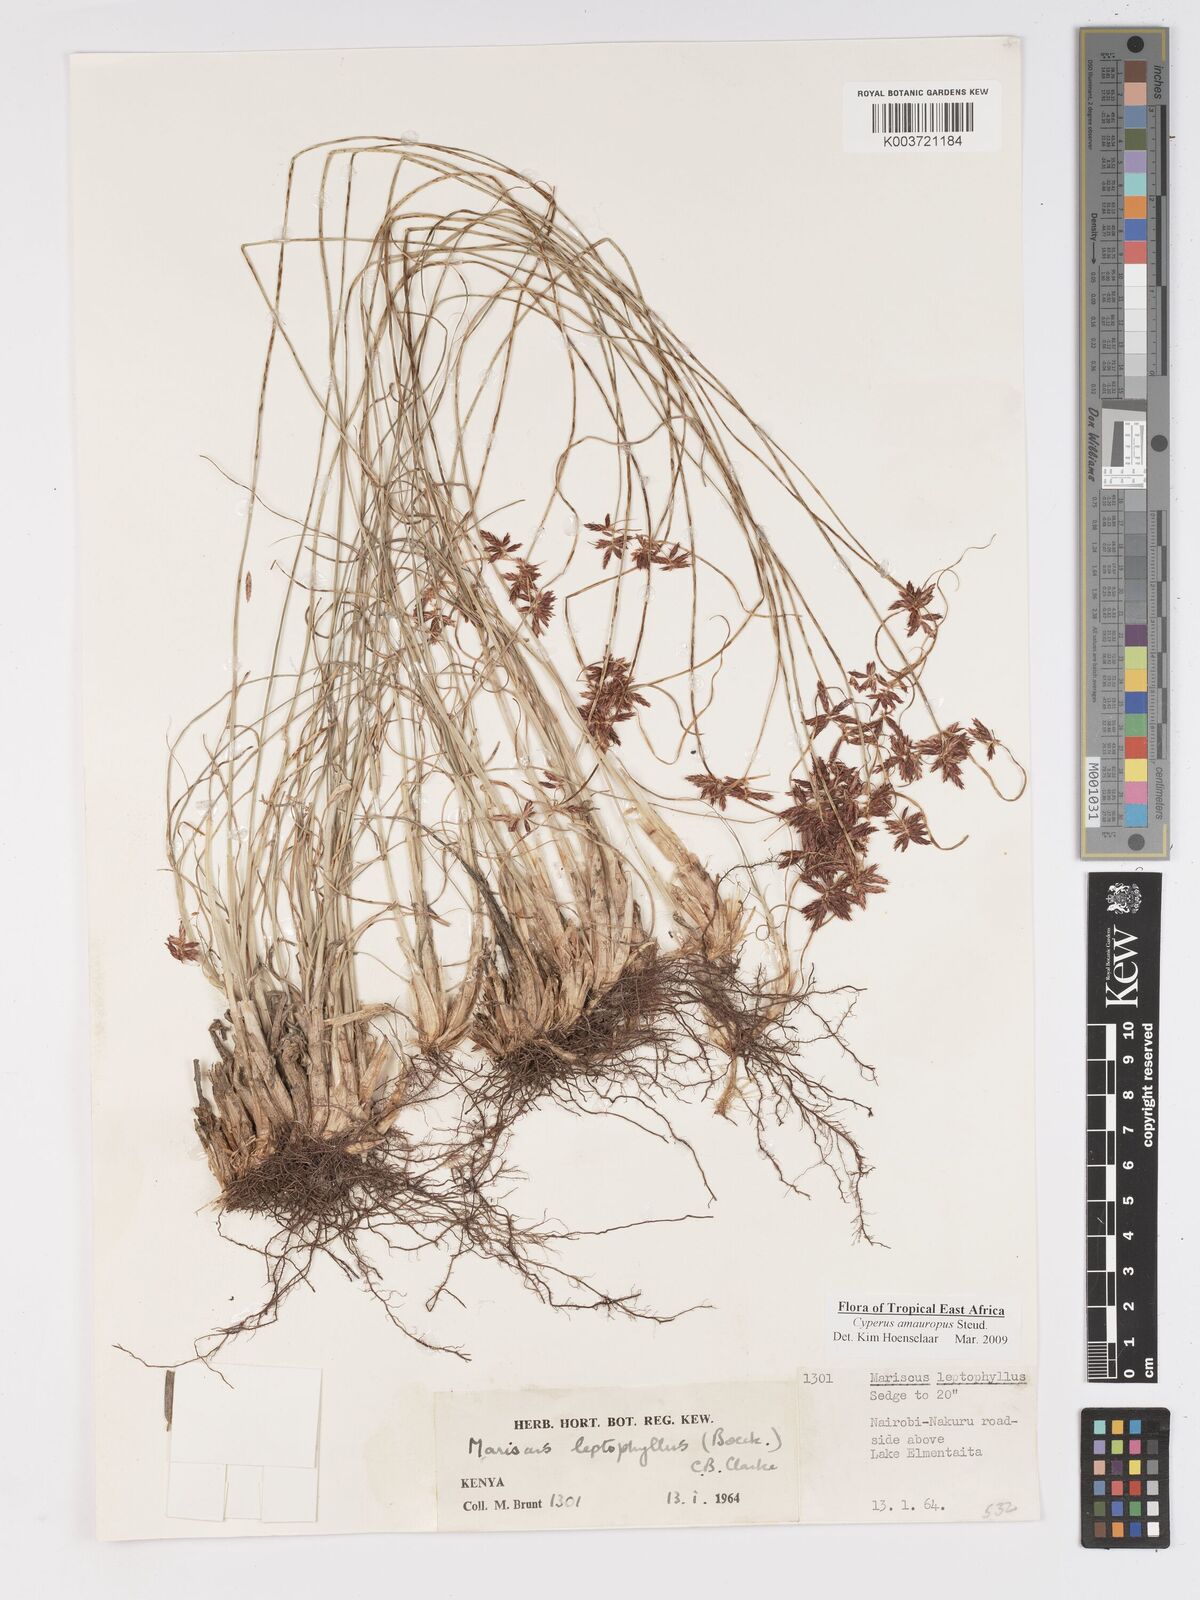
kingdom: Plantae
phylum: Tracheophyta
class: Liliopsida
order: Poales
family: Cyperaceae
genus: Cyperus
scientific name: Cyperus amauropus
